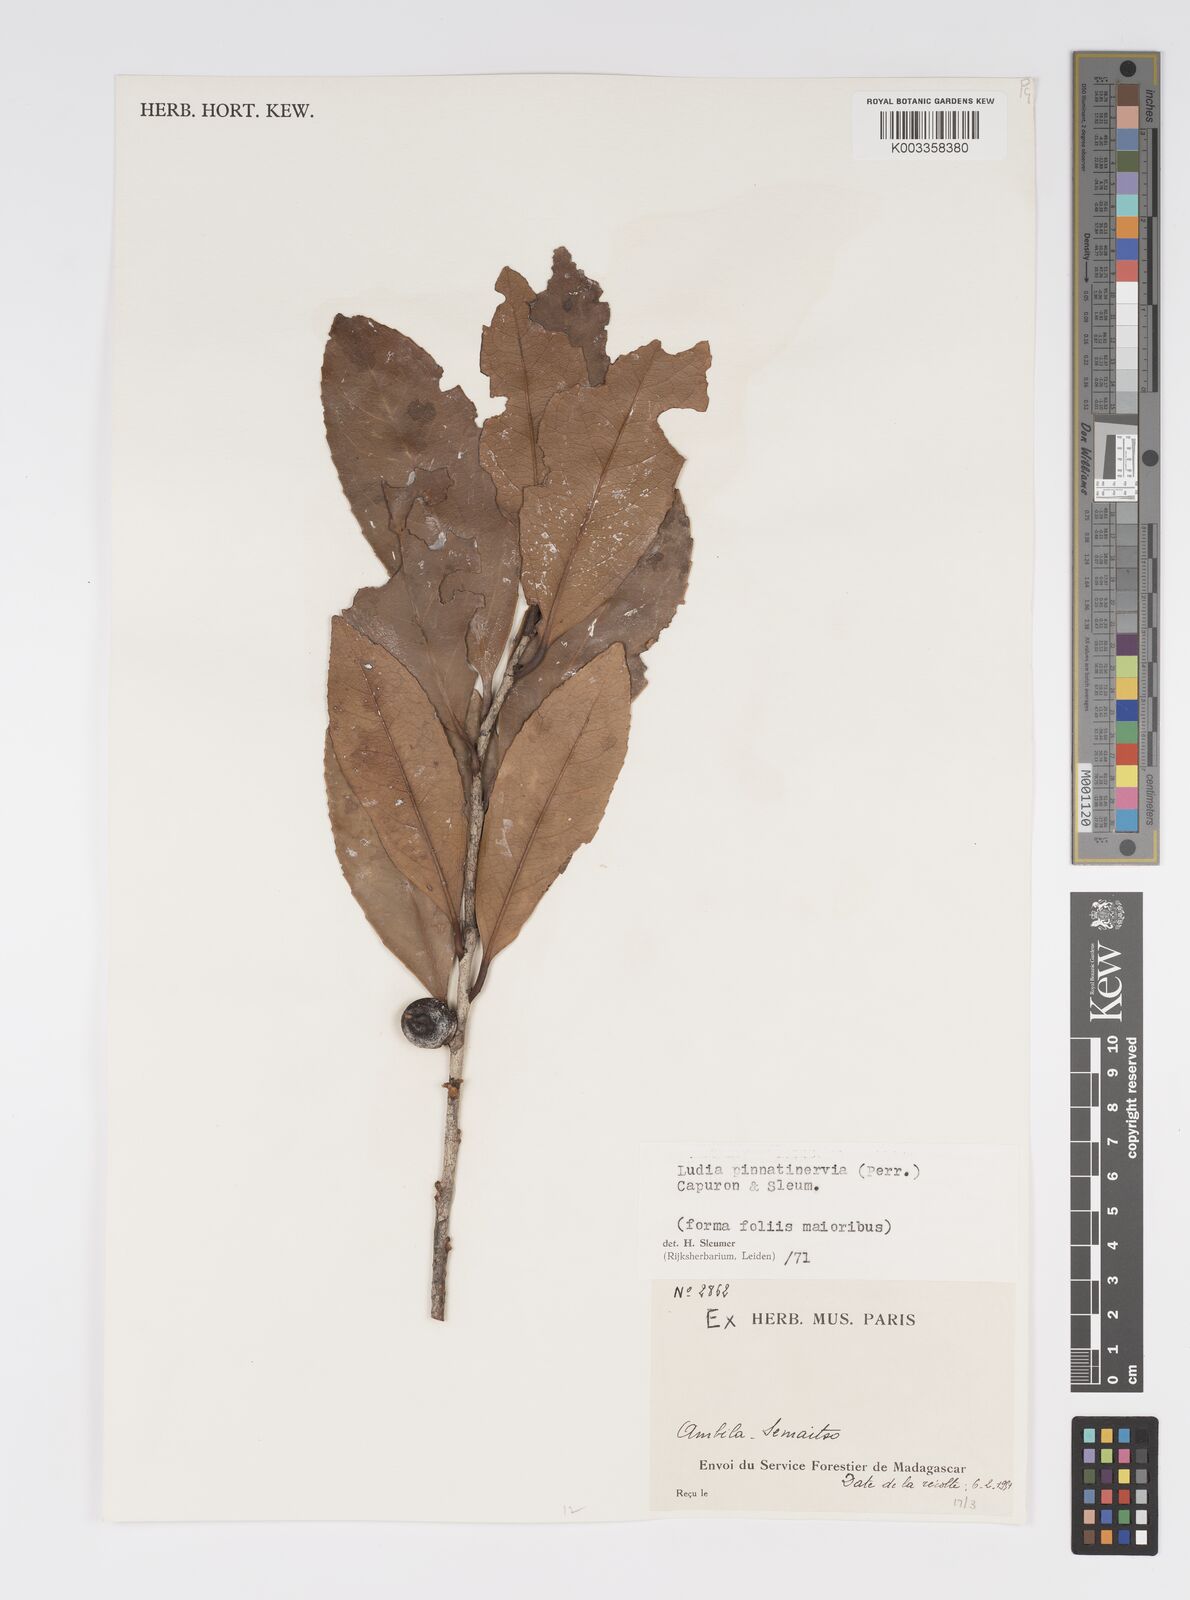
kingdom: Plantae
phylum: Tracheophyta
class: Magnoliopsida
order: Malpighiales
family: Salicaceae
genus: Ludia
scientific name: Ludia pinnatinervia
